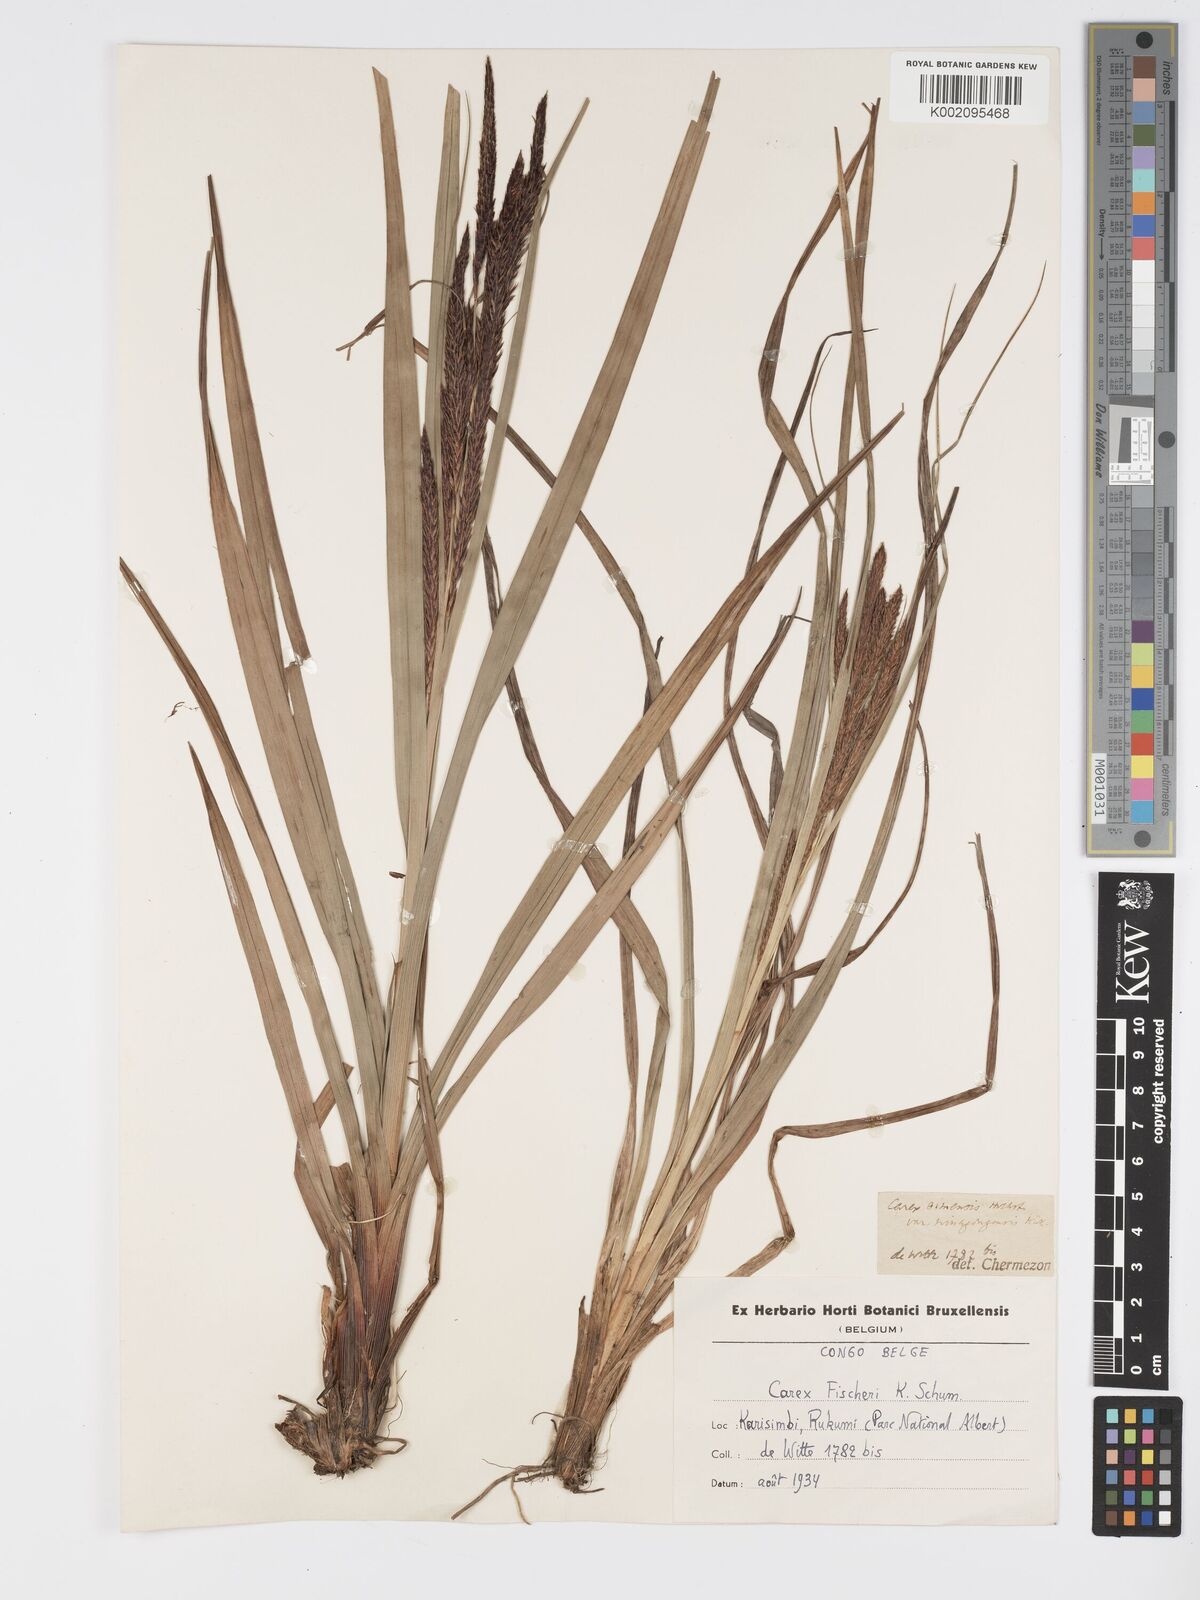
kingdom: Plantae
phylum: Tracheophyta
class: Liliopsida
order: Poales
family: Cyperaceae
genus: Carex
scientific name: Carex simensis
